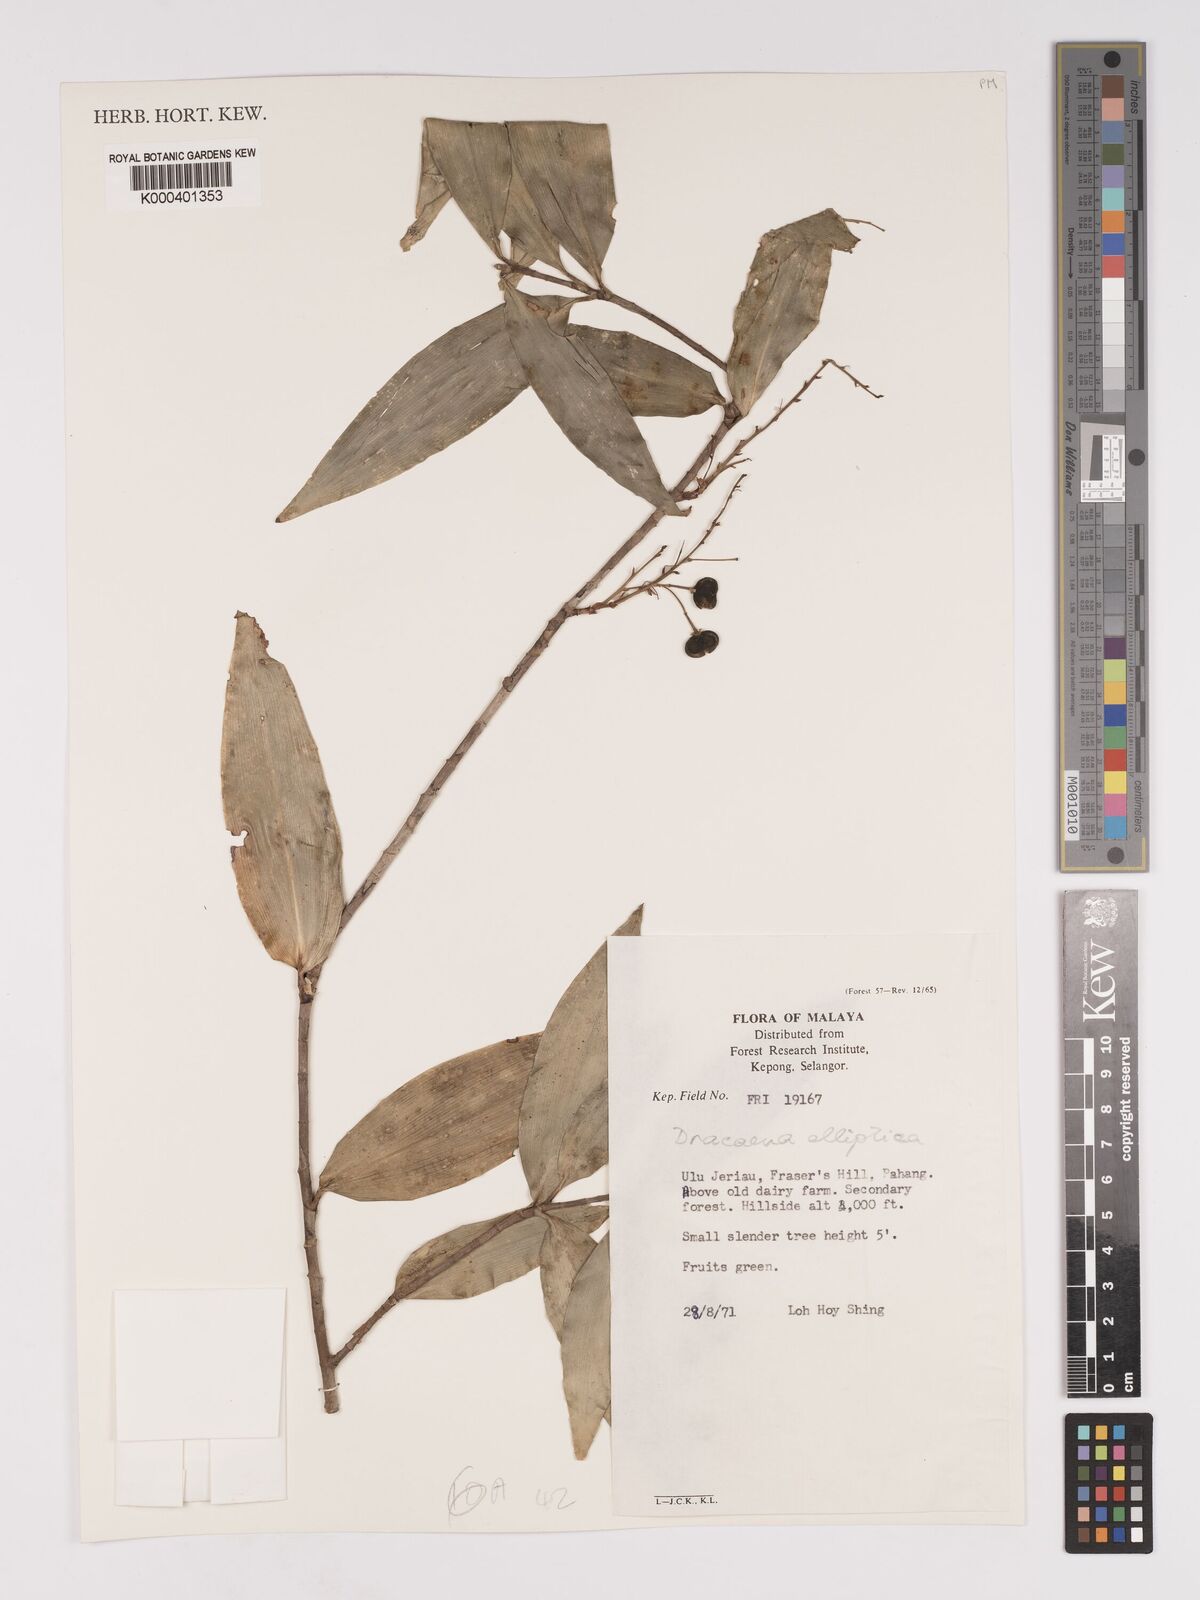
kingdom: Plantae
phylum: Tracheophyta
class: Liliopsida
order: Asparagales
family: Asparagaceae
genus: Dracaena
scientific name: Dracaena elliptica
